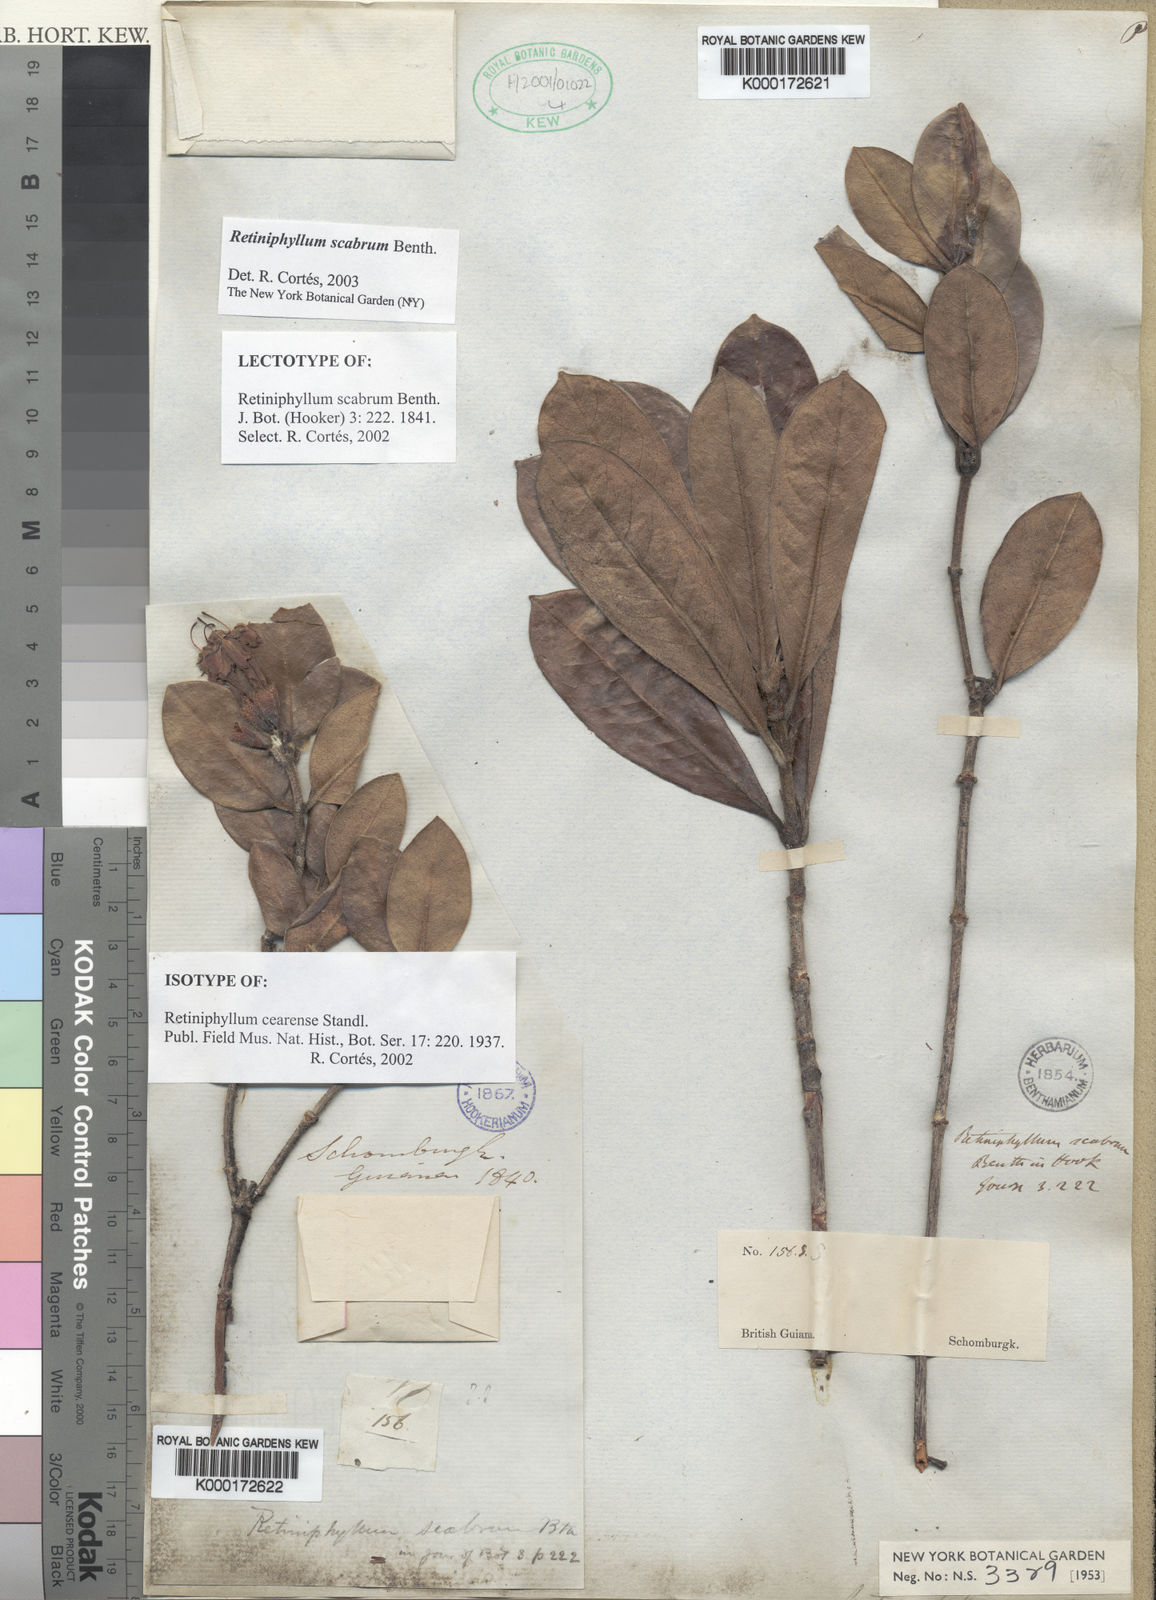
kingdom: Plantae
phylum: Tracheophyta
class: Magnoliopsida
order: Gentianales
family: Rubiaceae
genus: Retiniphyllum
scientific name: Retiniphyllum scabrum
